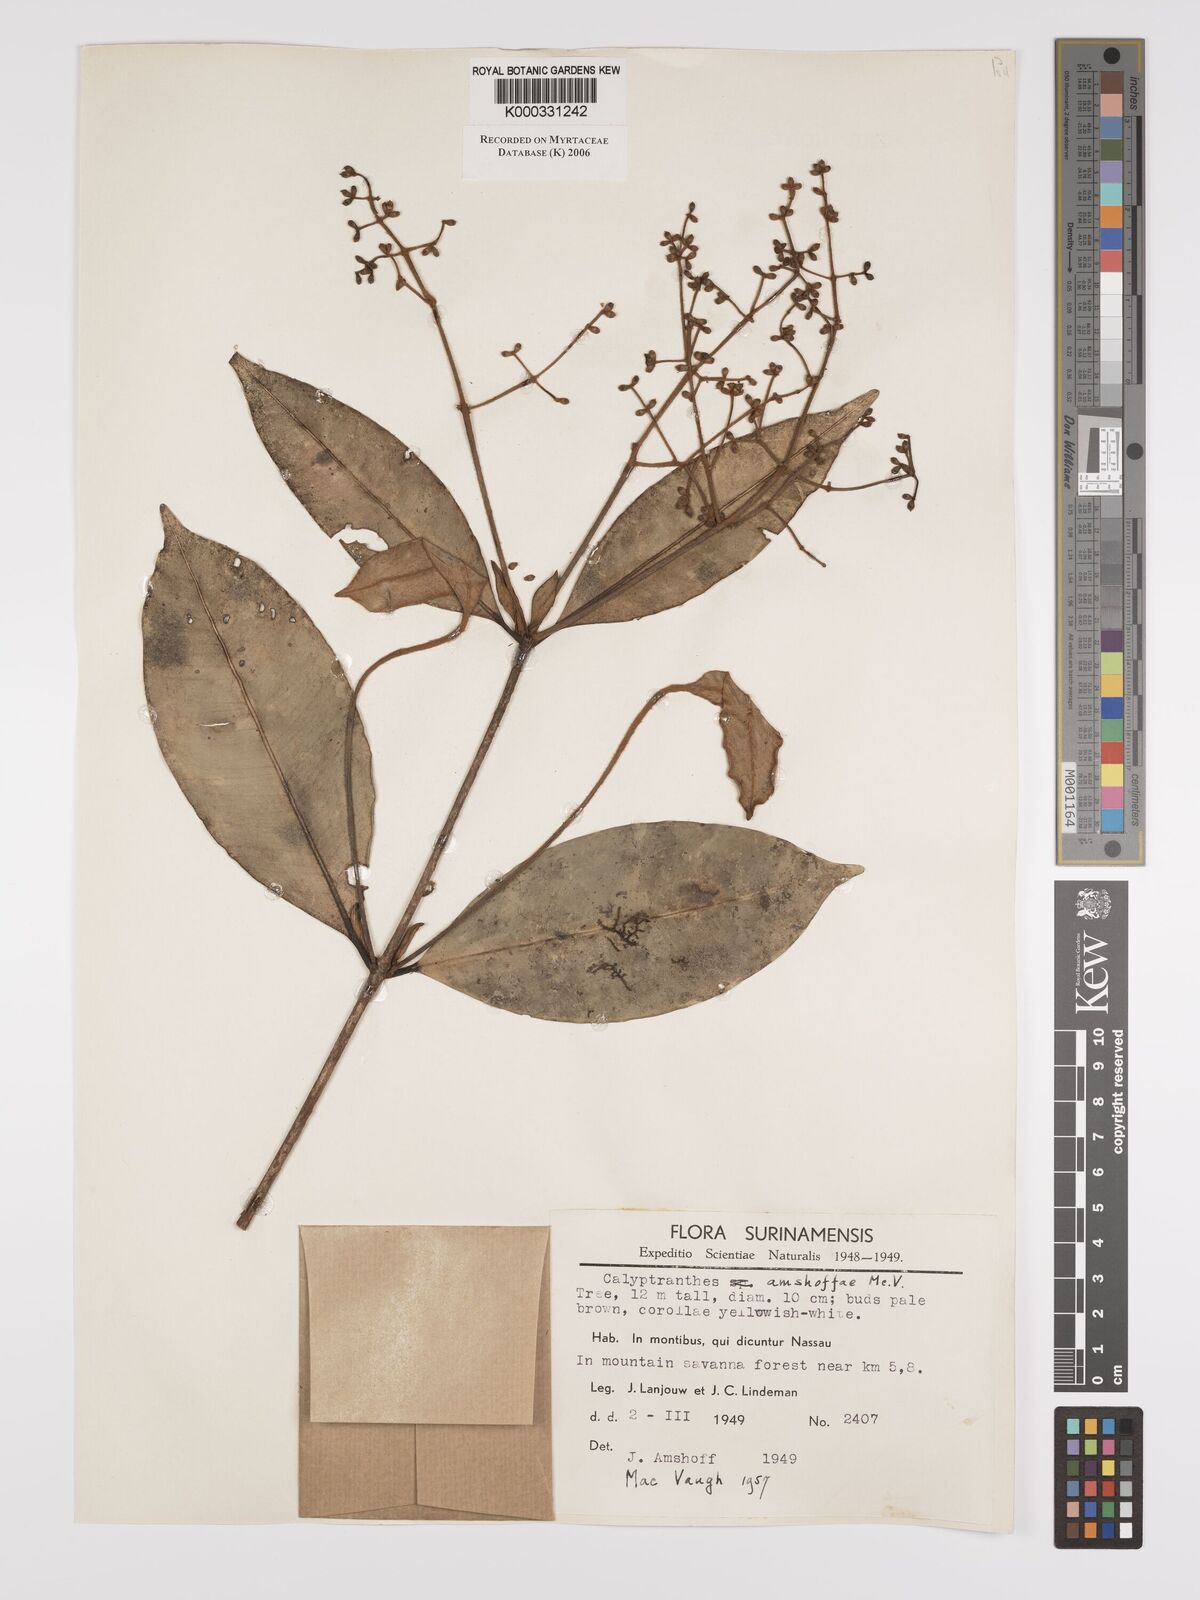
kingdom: Plantae
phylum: Tracheophyta
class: Magnoliopsida
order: Myrtales
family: Myrtaceae
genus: Myrcia
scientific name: Myrcia amshoffae
